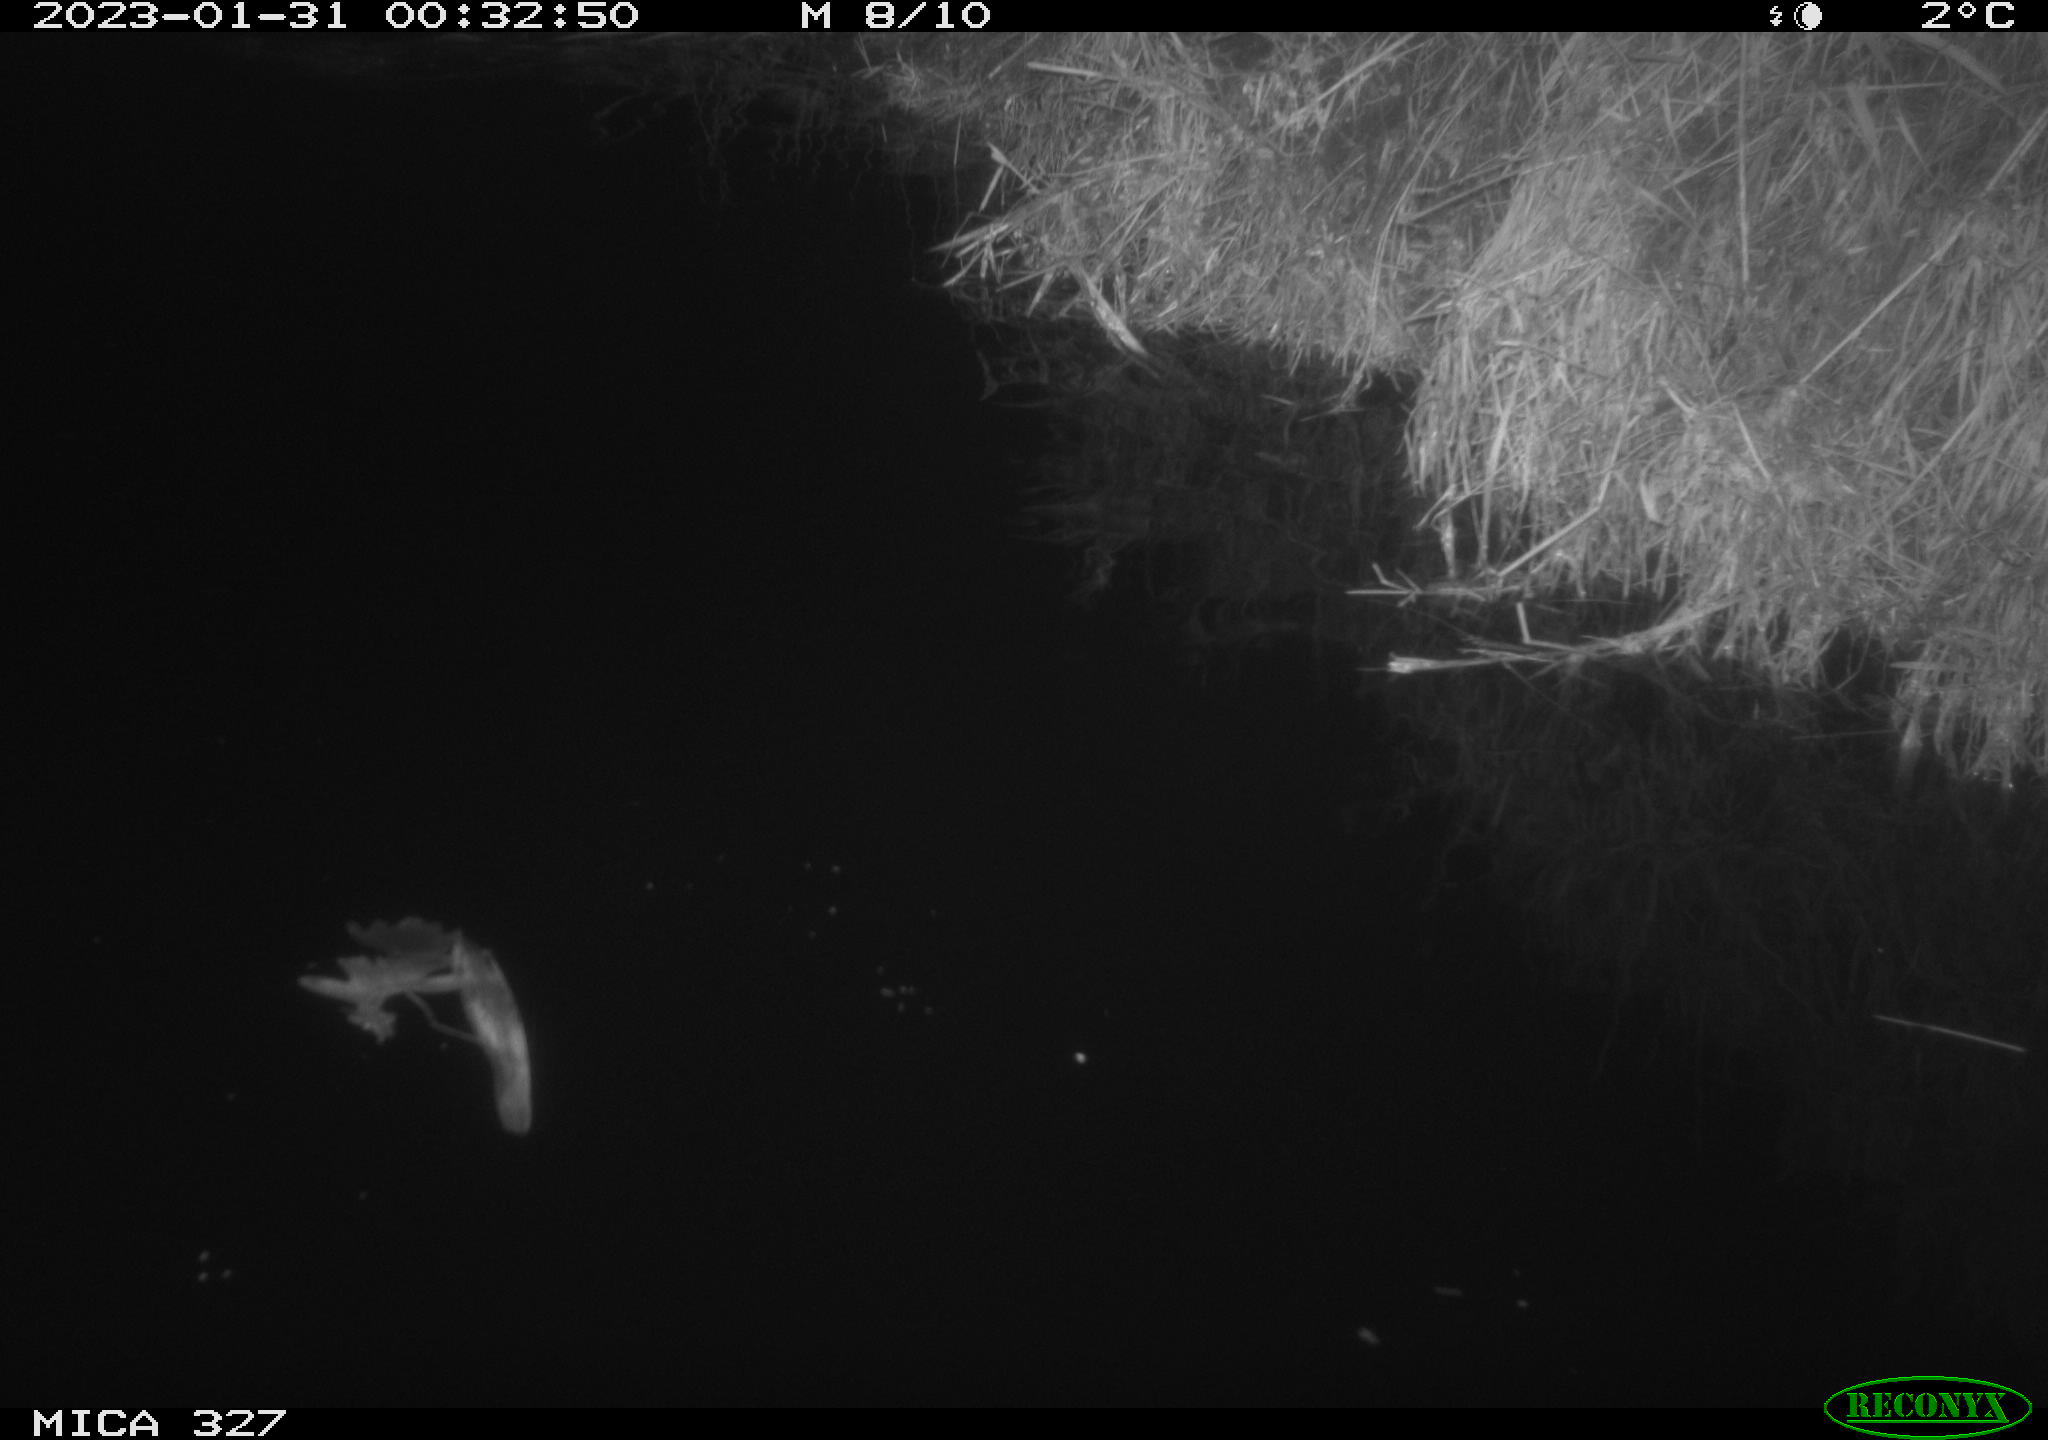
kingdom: Animalia
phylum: Chordata
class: Mammalia
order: Rodentia
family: Cricetidae
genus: Ondatra
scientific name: Ondatra zibethicus
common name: Muskrat
